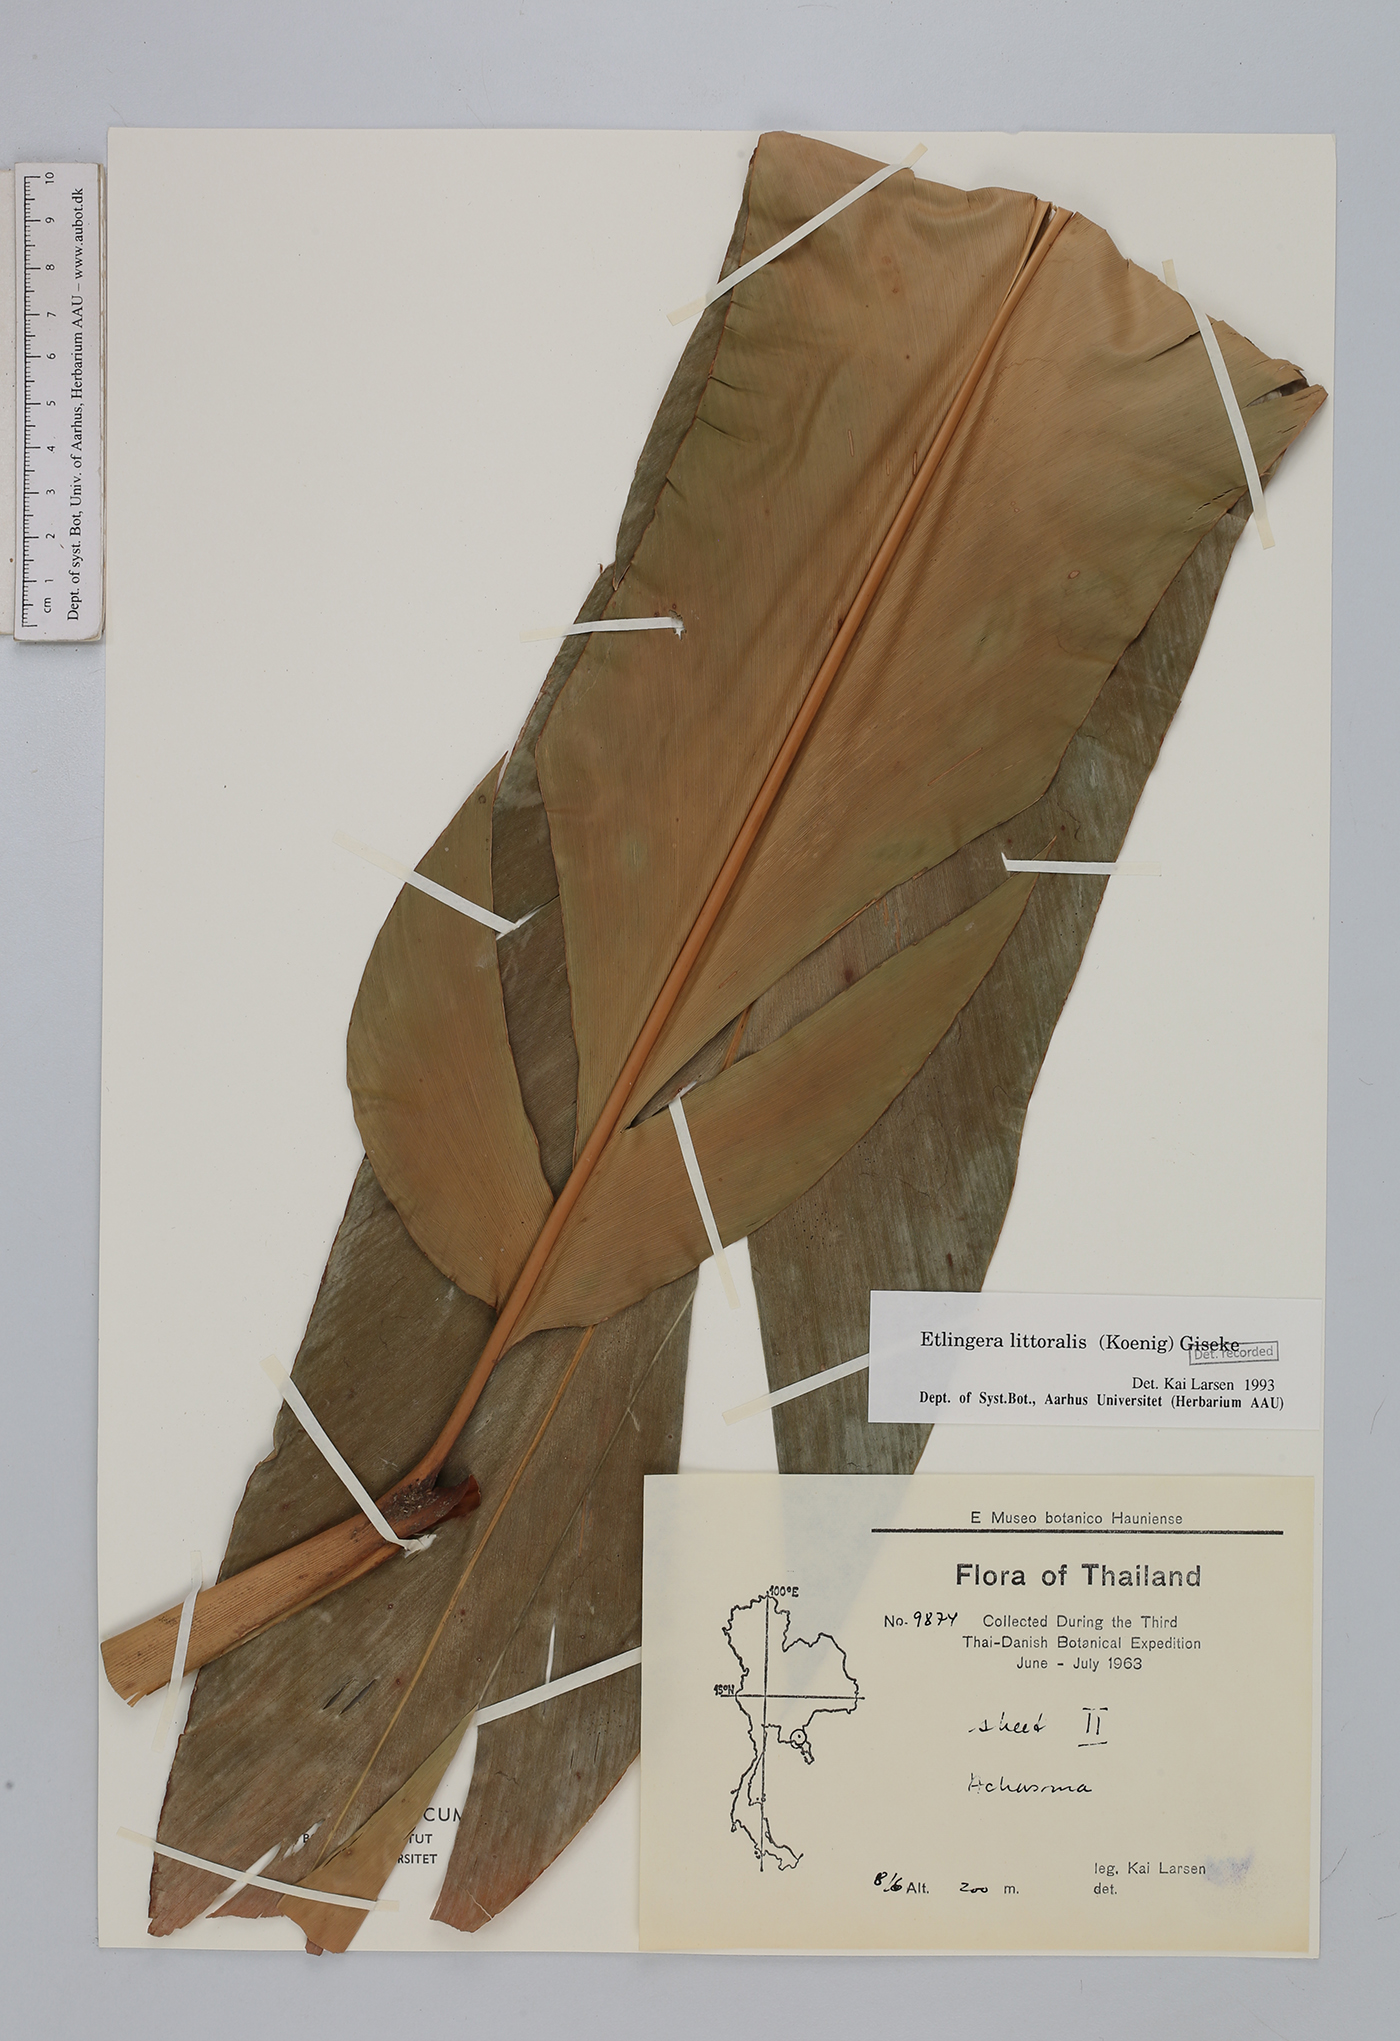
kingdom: Plantae
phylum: Tracheophyta
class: Liliopsida
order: Zingiberales
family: Zingiberaceae
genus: Etlingera
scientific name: Etlingera littoralis
